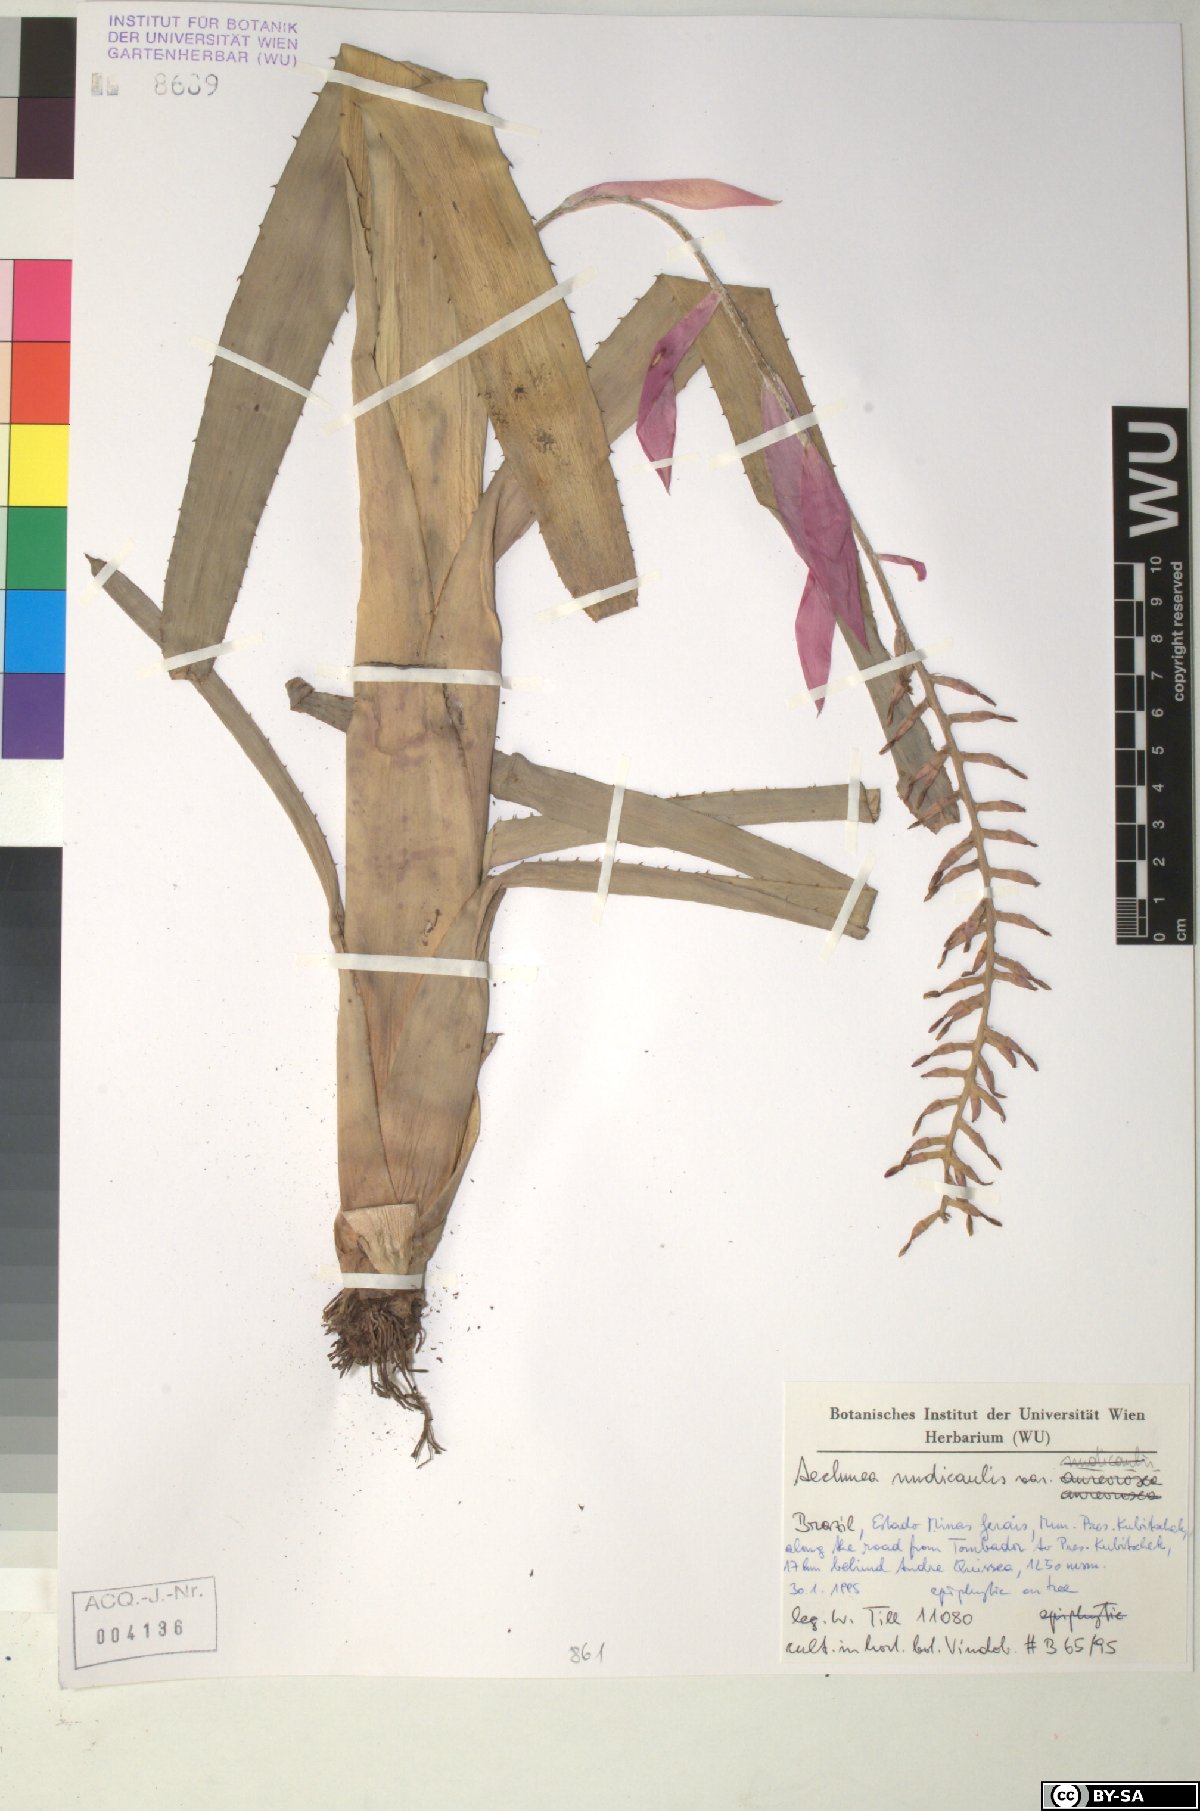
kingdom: Plantae
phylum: Tracheophyta
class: Liliopsida
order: Poales
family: Bromeliaceae
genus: Aechmea
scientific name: Aechmea nudicaulis
